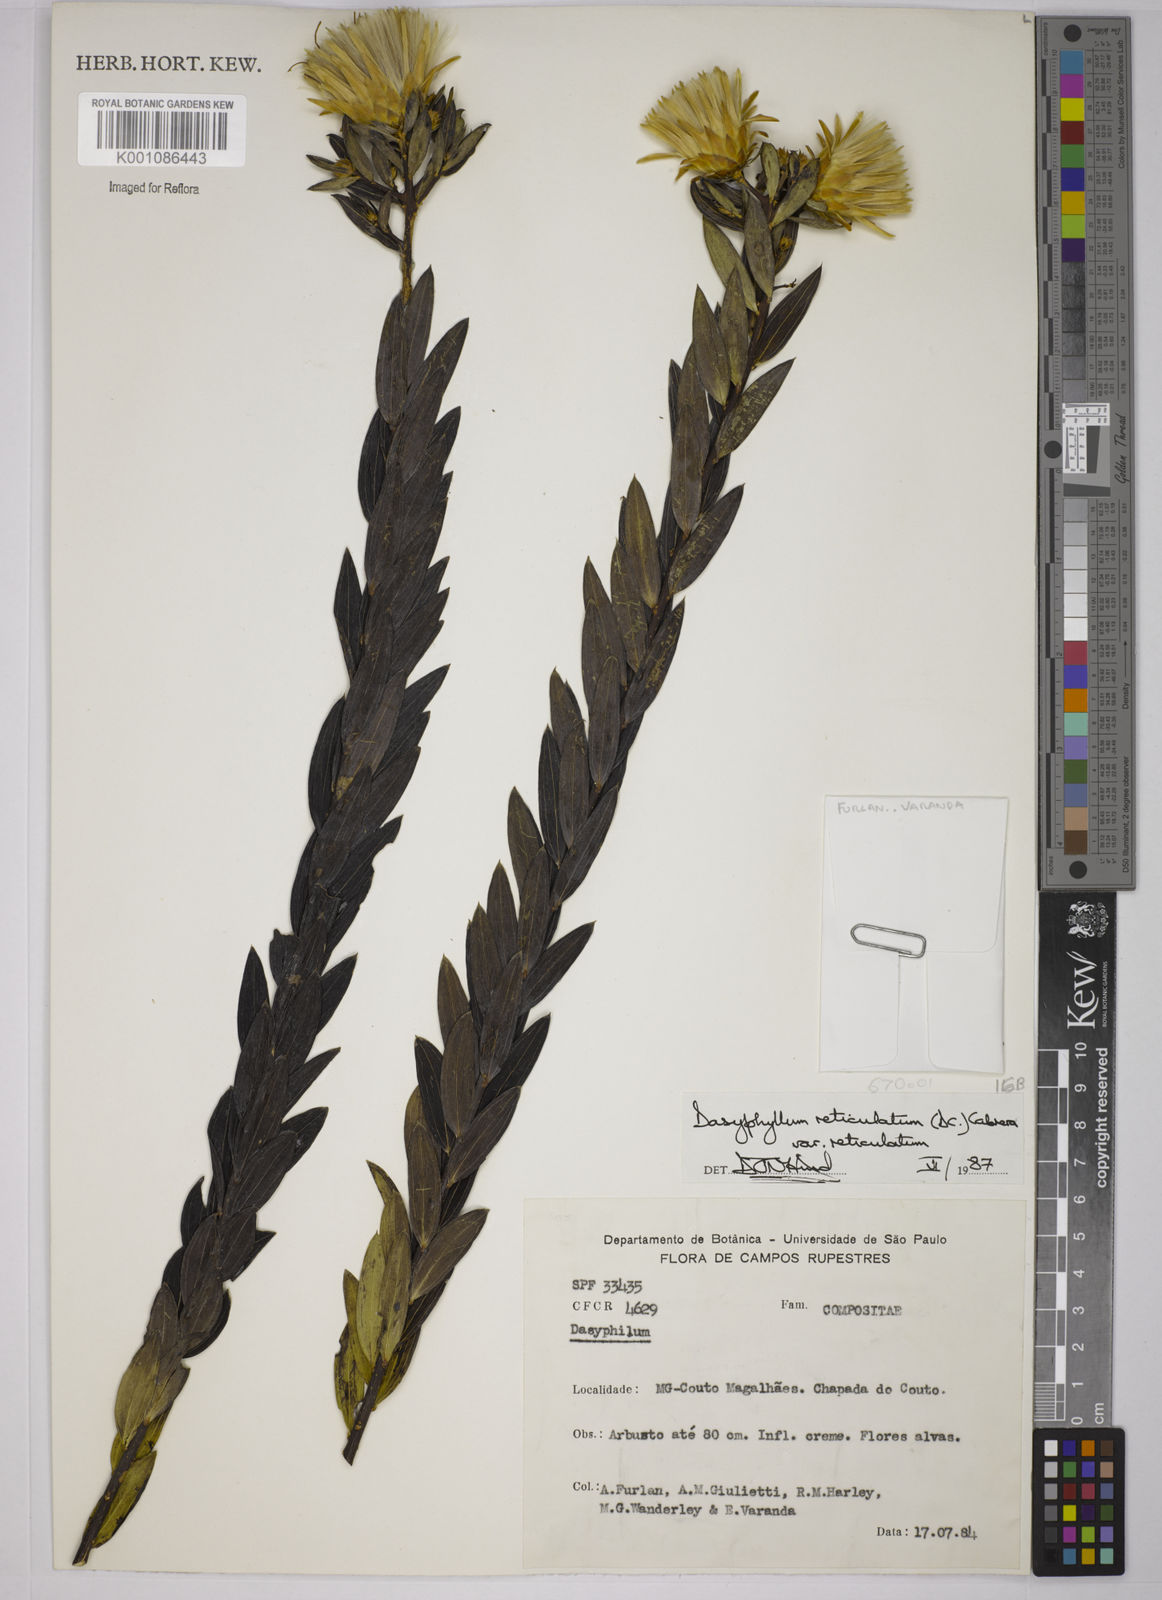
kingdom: Plantae
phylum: Tracheophyta
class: Magnoliopsida
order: Asterales
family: Asteraceae
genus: Dasyphyllum
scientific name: Dasyphyllum reticulatum
